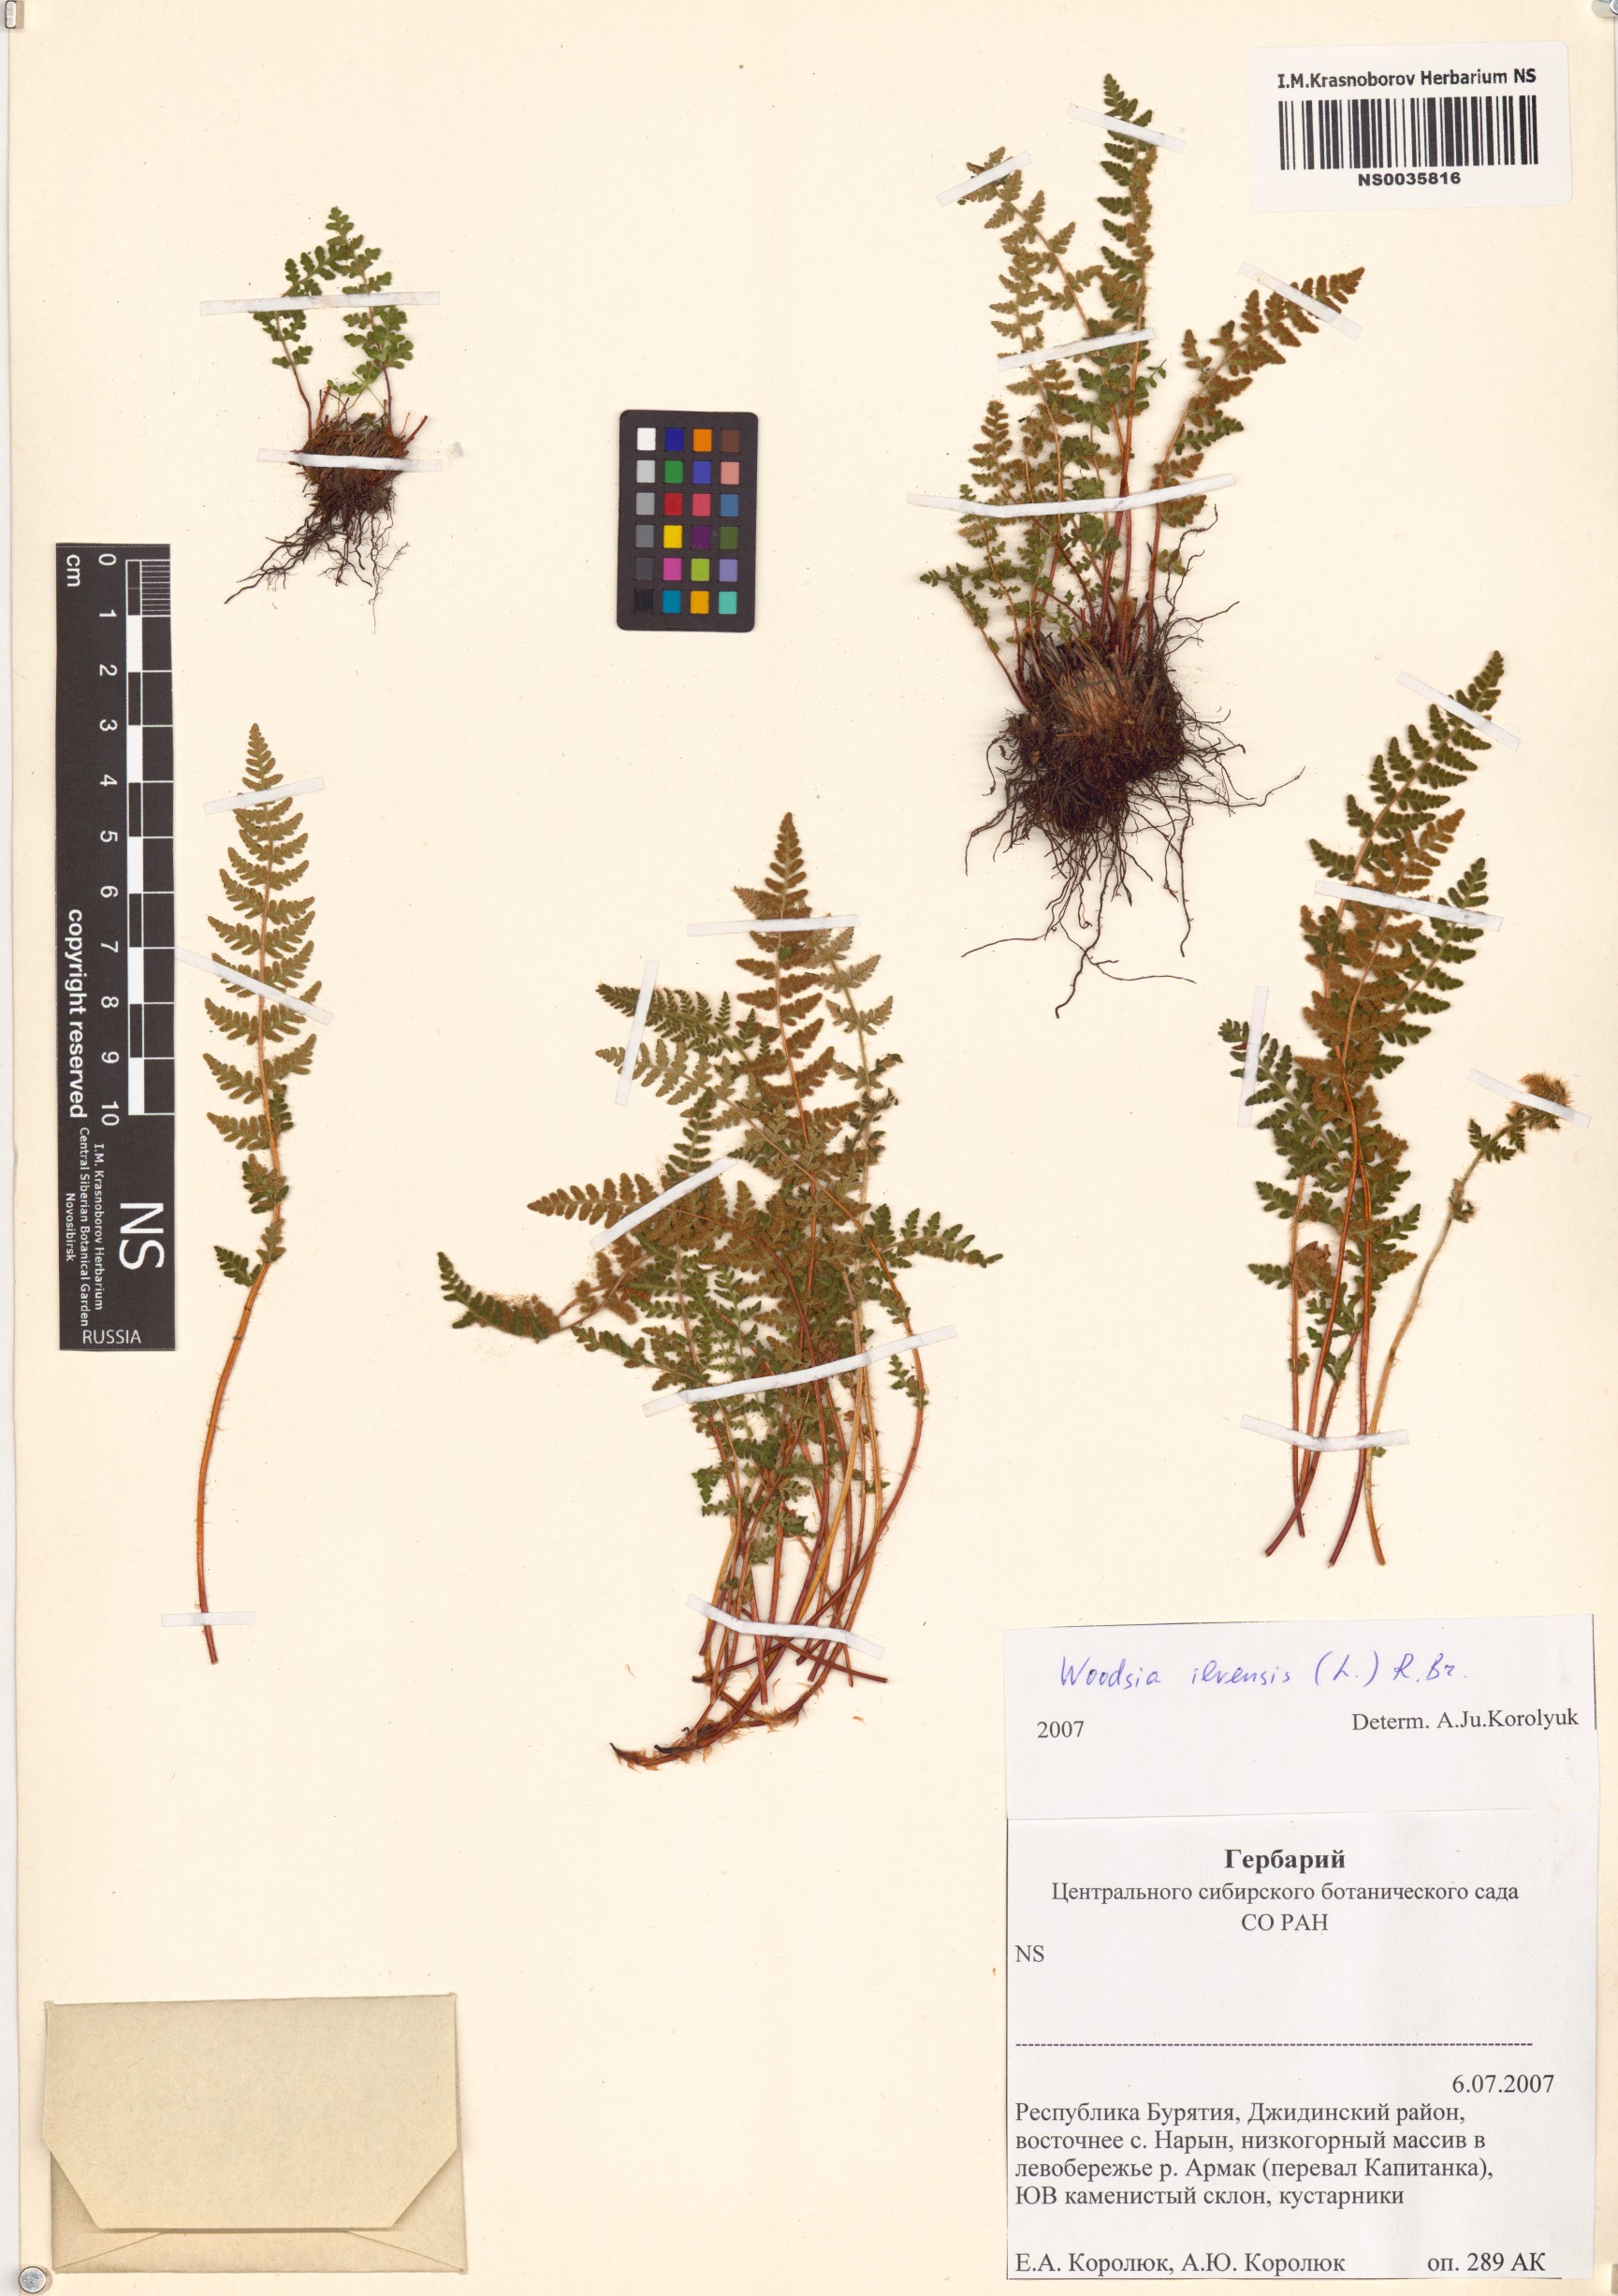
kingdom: Plantae
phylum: Tracheophyta
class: Polypodiopsida
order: Polypodiales
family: Woodsiaceae
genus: Woodsia
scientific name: Woodsia ilvensis
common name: Fragrant woodsia
